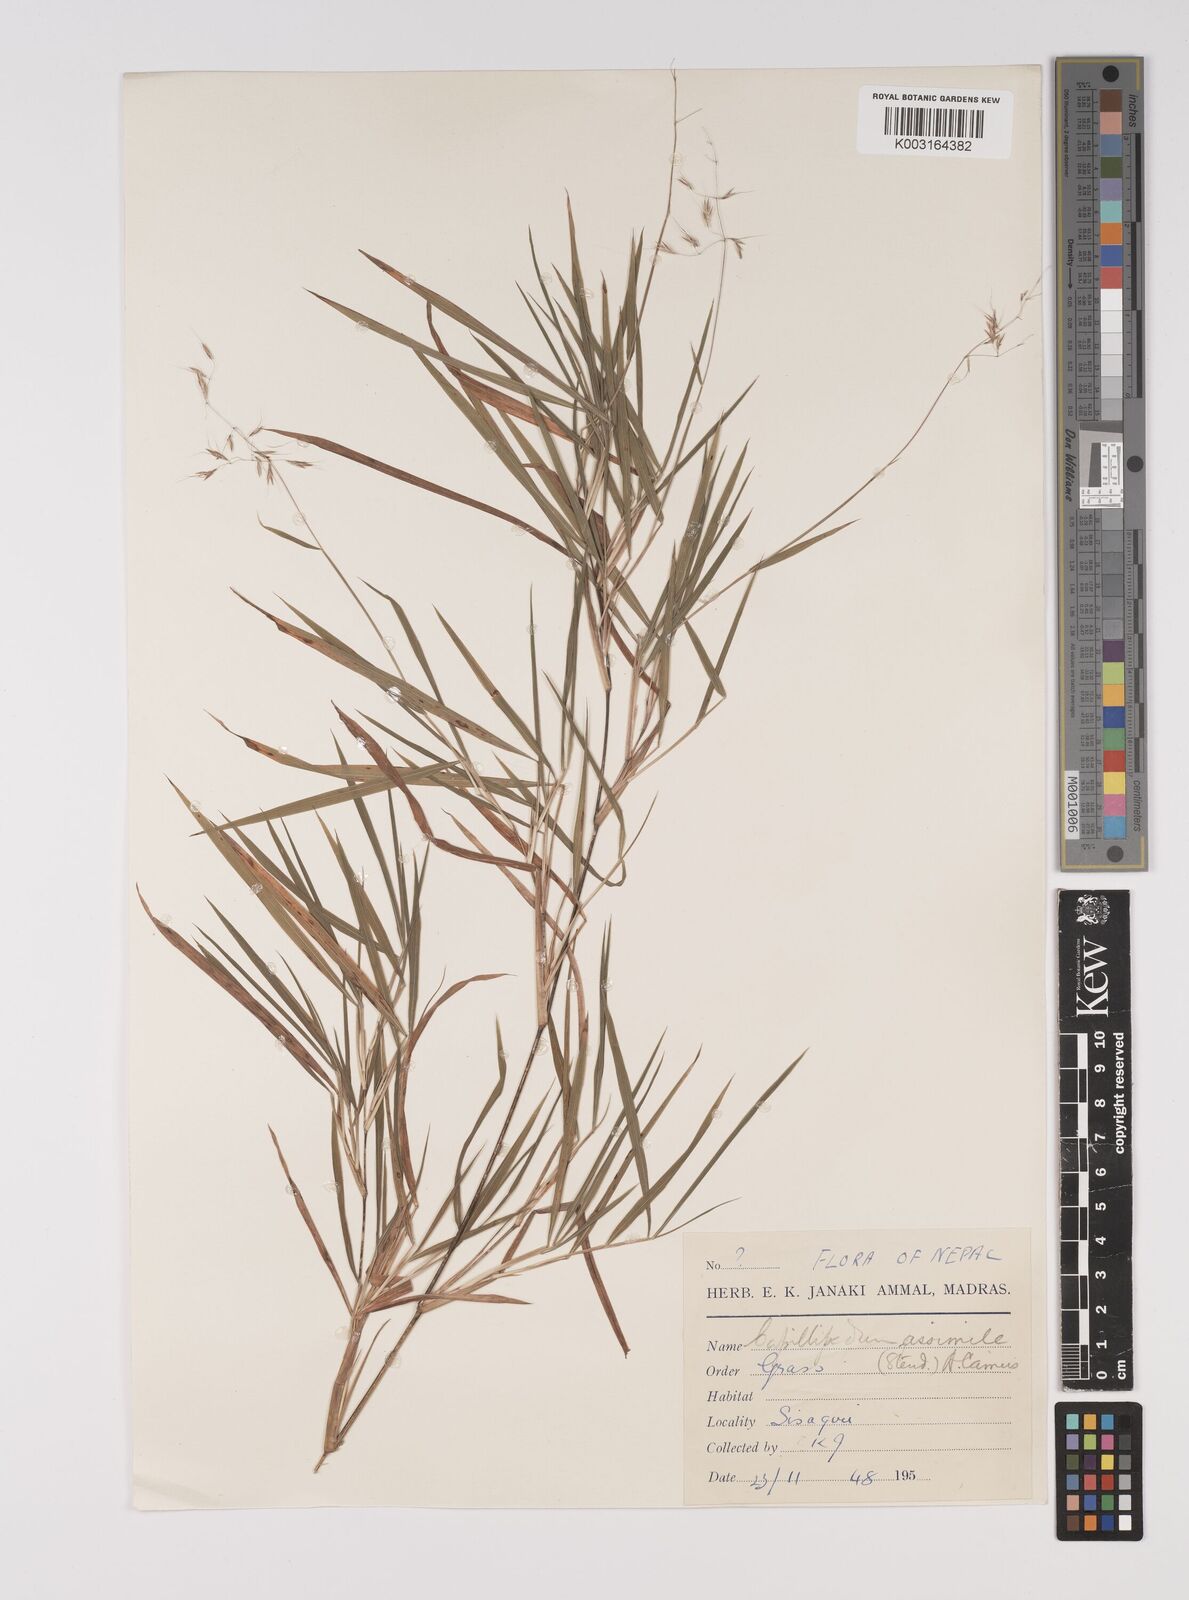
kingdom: Plantae
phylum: Tracheophyta
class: Liliopsida
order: Poales
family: Poaceae
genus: Capillipedium
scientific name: Capillipedium assimile
